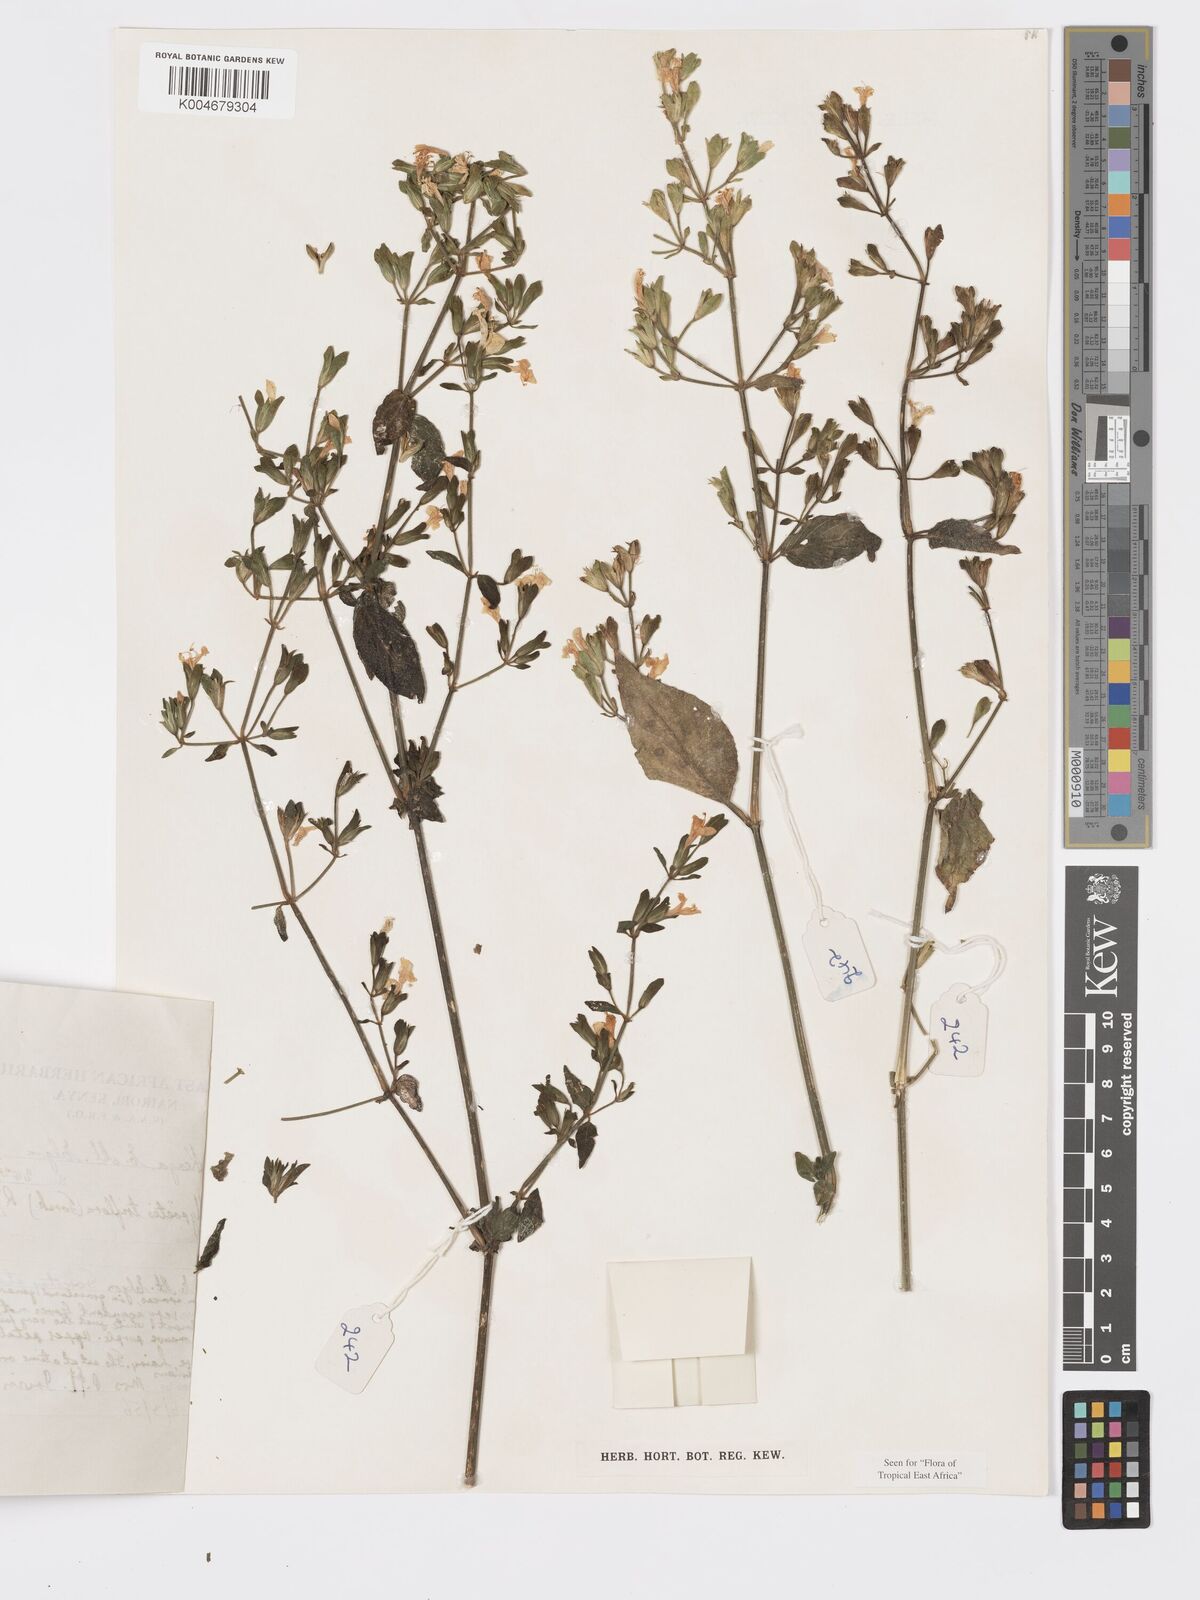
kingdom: Plantae
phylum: Tracheophyta
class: Magnoliopsida
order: Lamiales
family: Acanthaceae
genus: Hypoestes
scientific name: Hypoestes triflora
